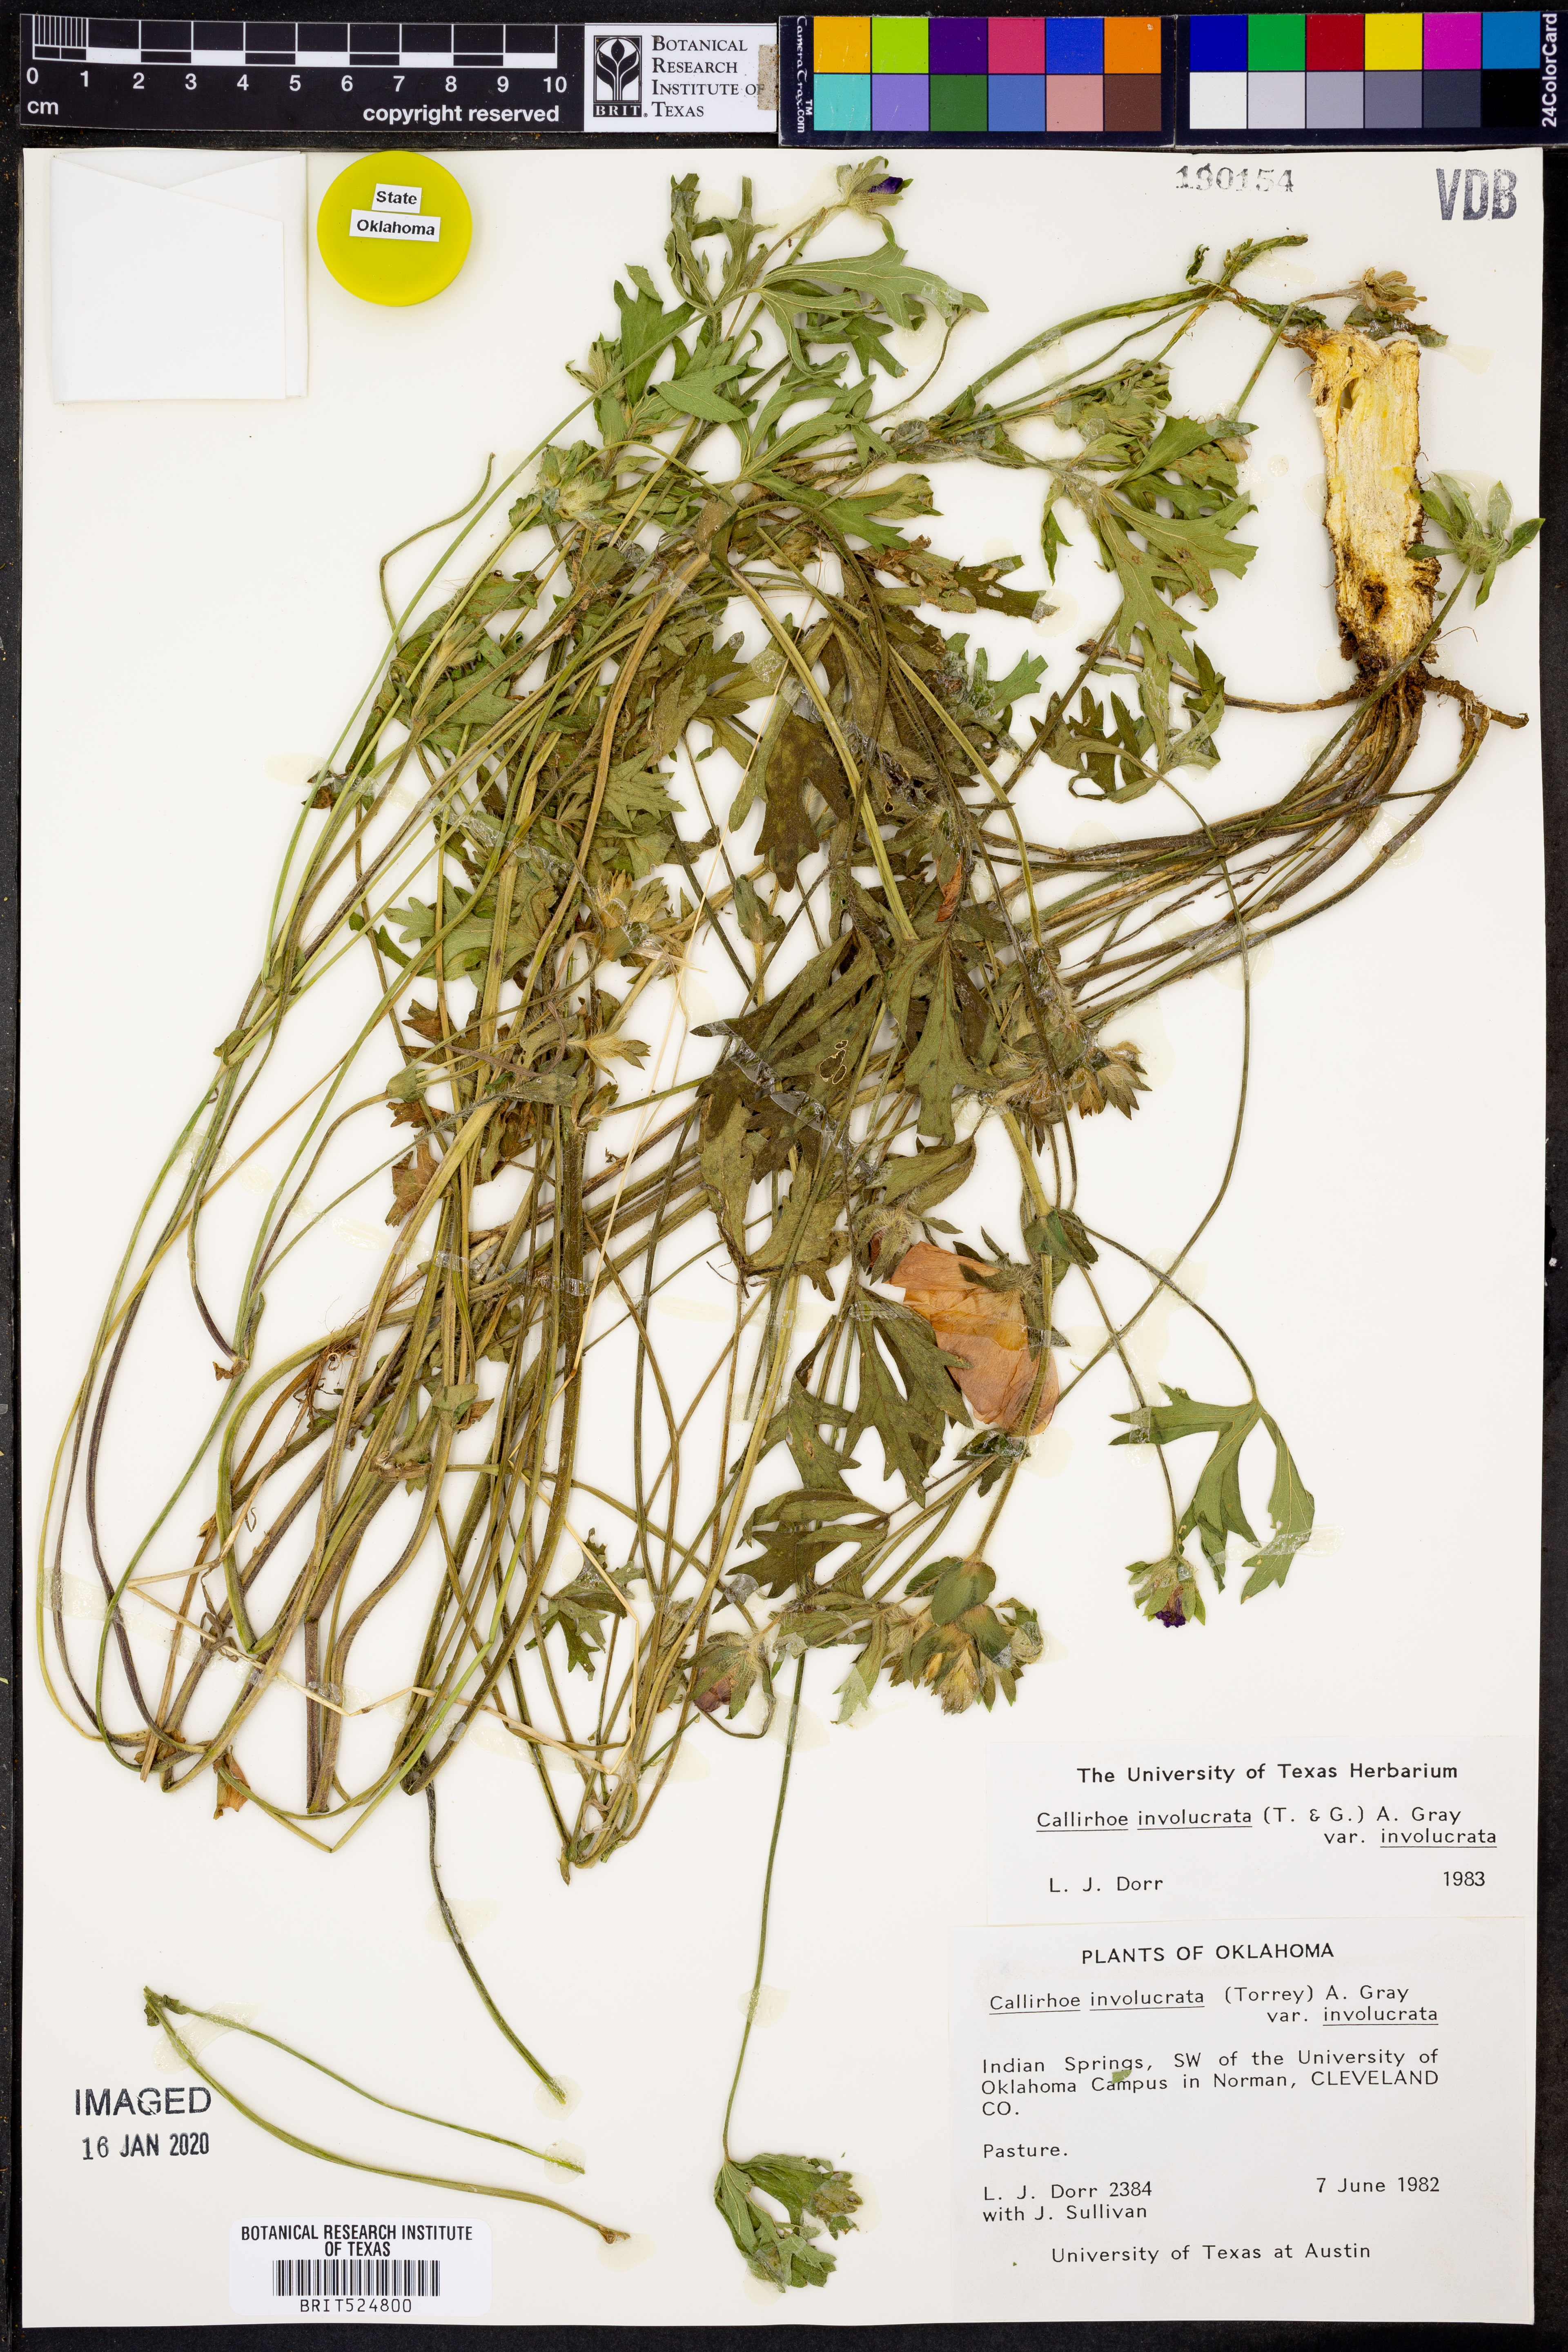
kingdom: Plantae
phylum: Tracheophyta
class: Magnoliopsida
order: Malvales
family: Malvaceae
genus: Callirhoe
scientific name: Callirhoe involucrata
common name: Purple poppy-mallow
